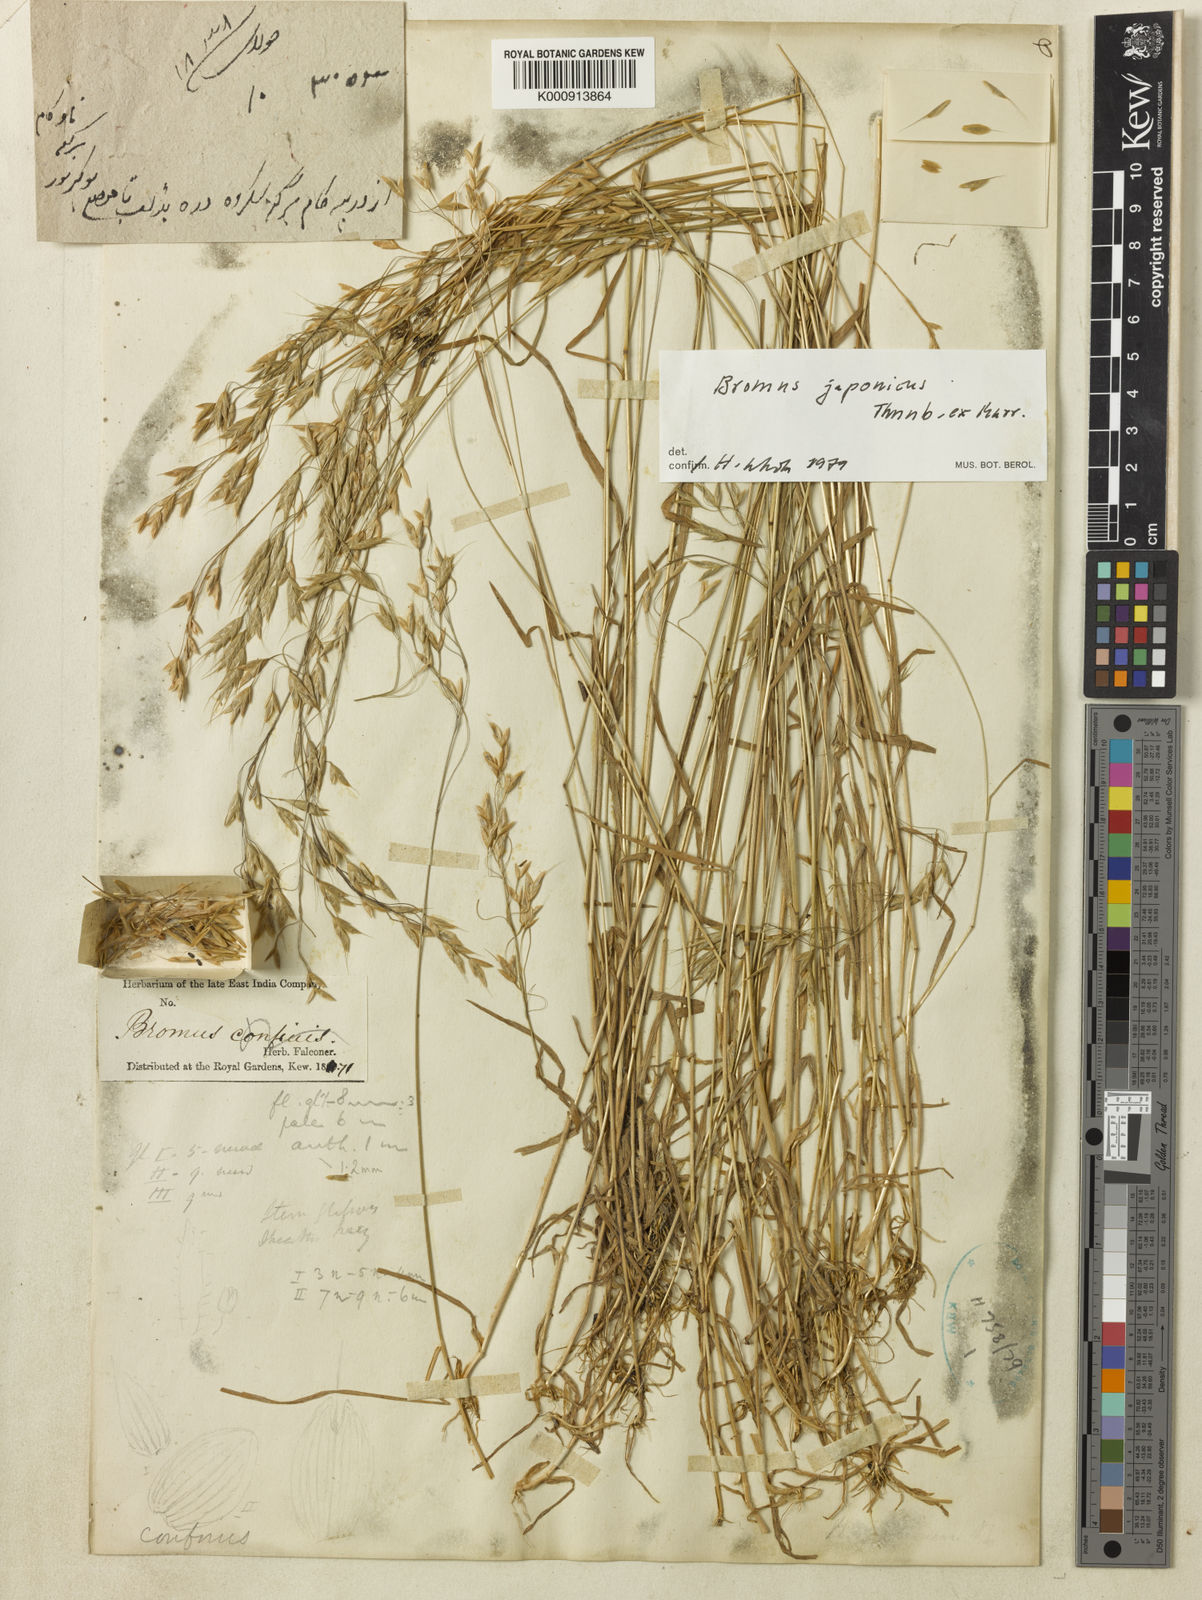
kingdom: Plantae
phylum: Tracheophyta
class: Liliopsida
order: Poales
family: Poaceae
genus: Bromus
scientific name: Bromus
